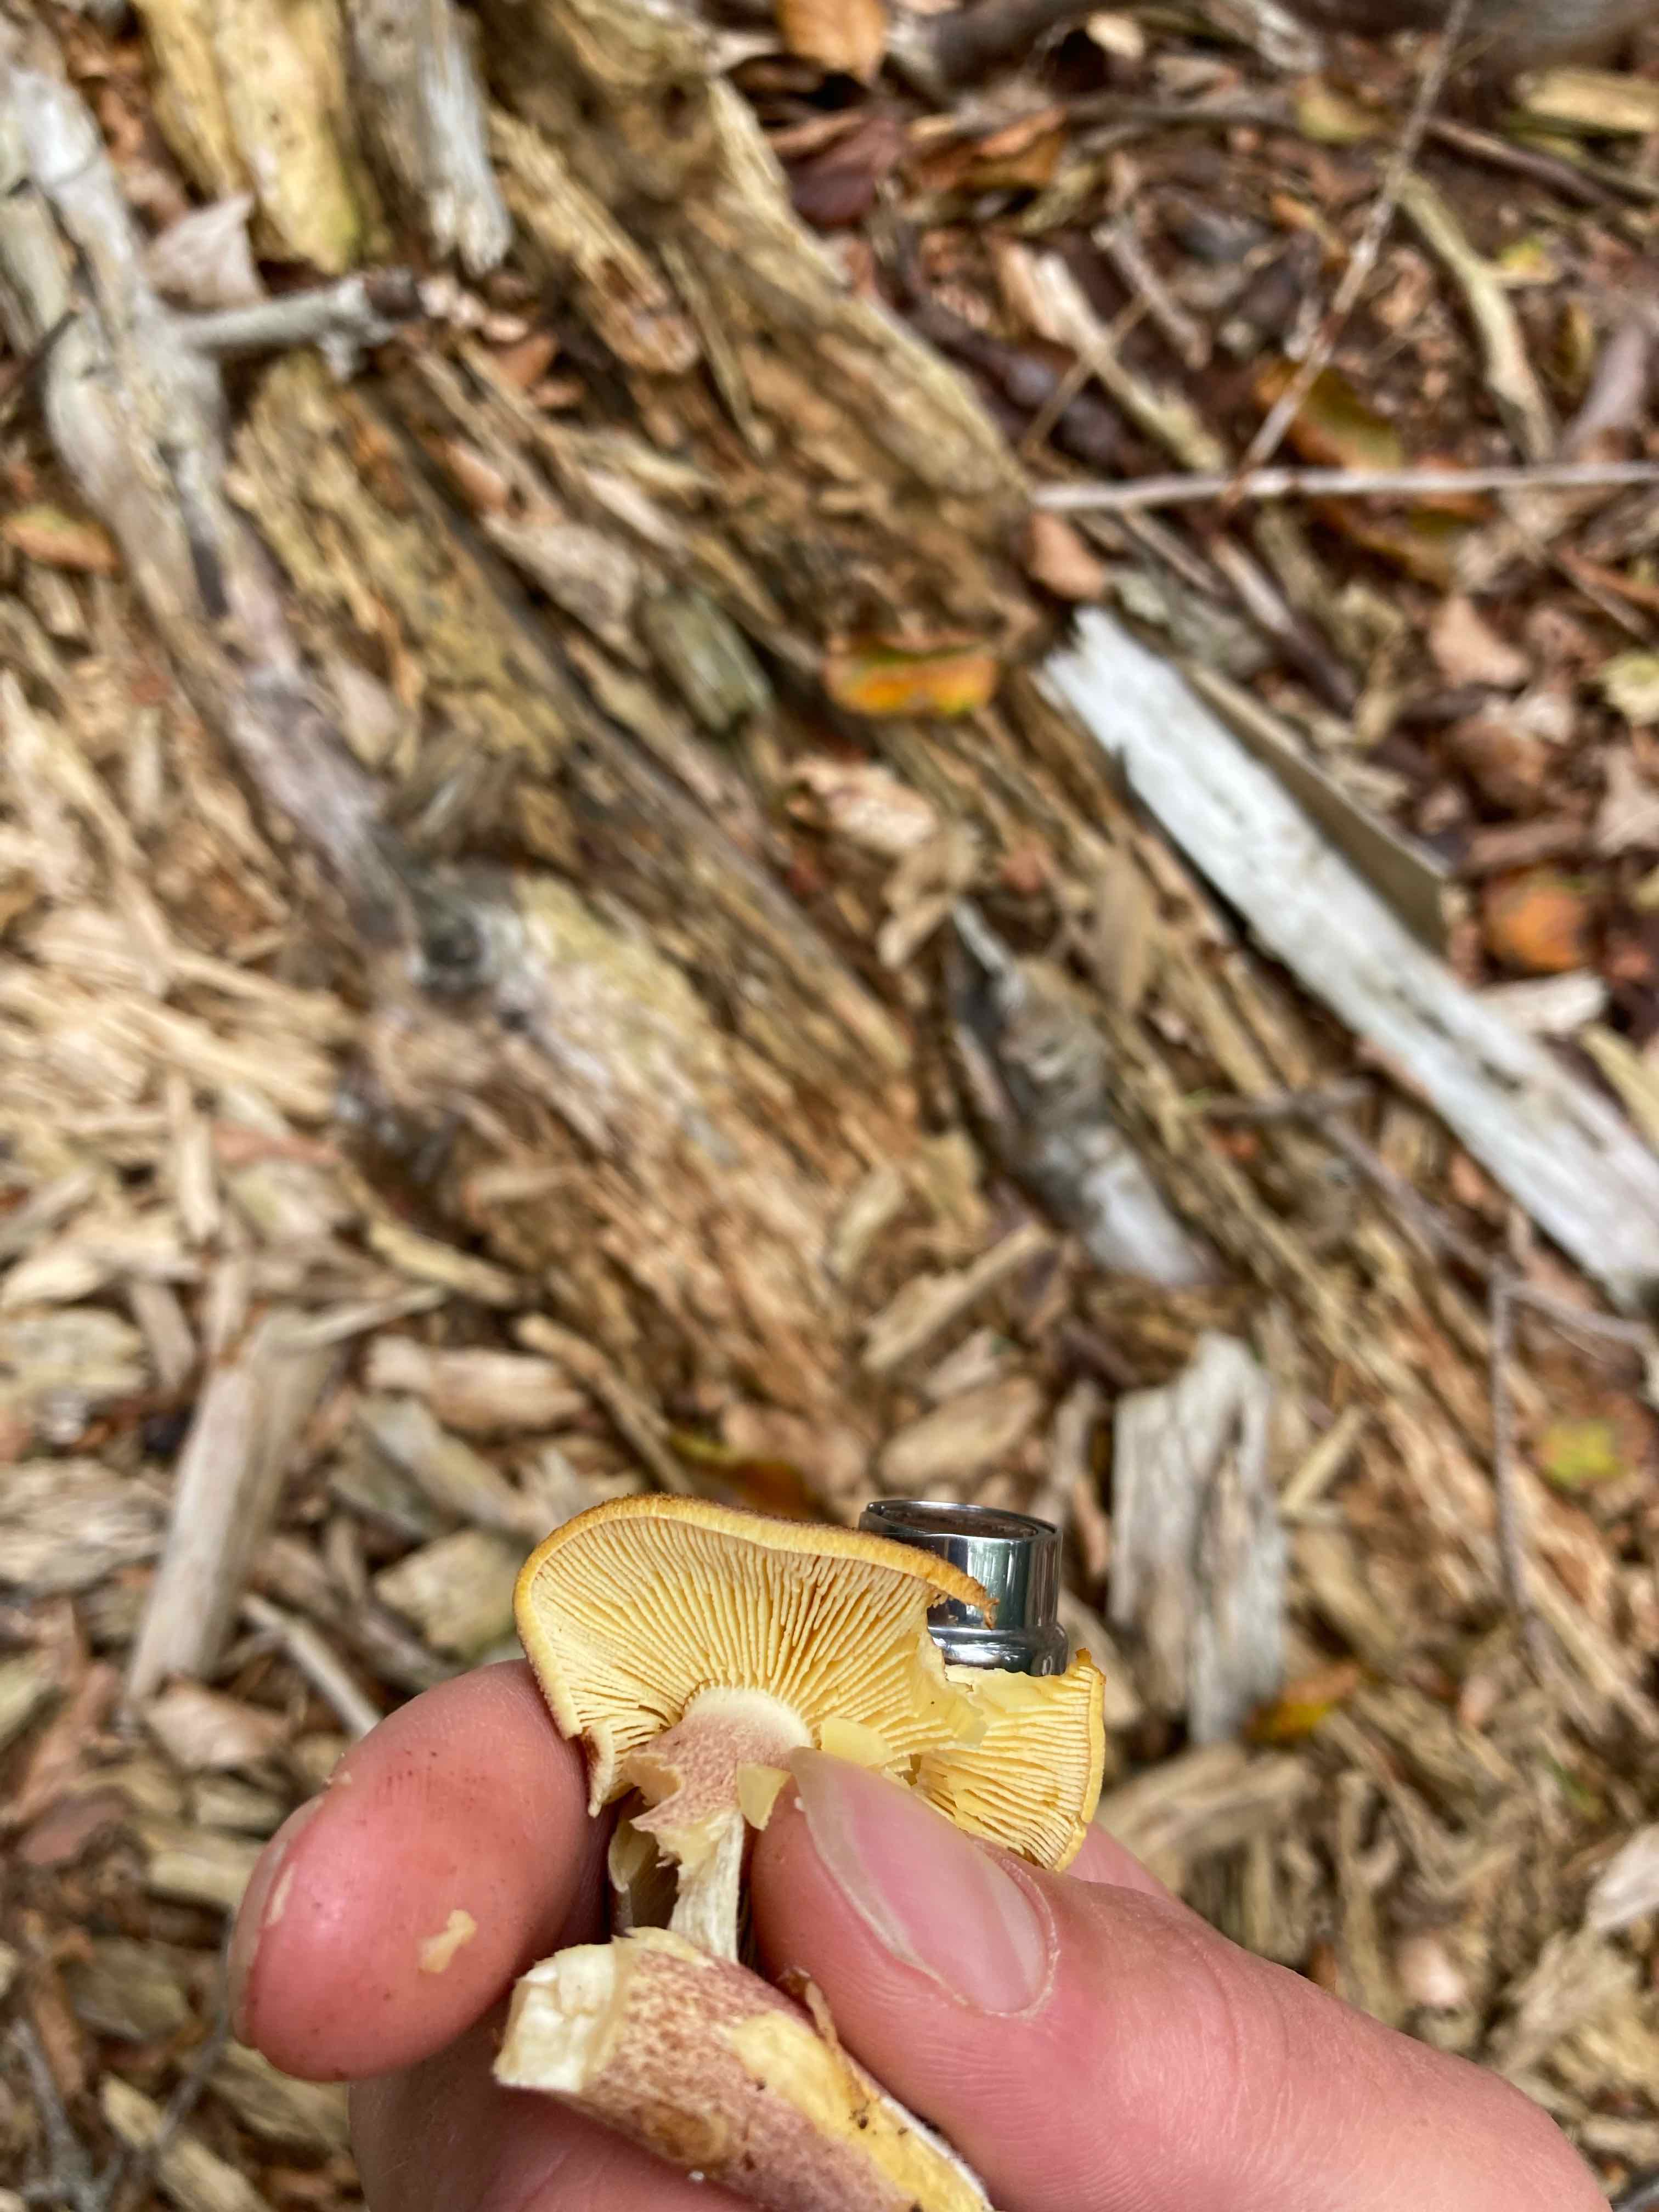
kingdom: Fungi
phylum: Basidiomycota
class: Agaricomycetes
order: Agaricales
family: Tricholomataceae
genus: Tricholomopsis
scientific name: Tricholomopsis rutilans
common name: purpur-væbnerhat
